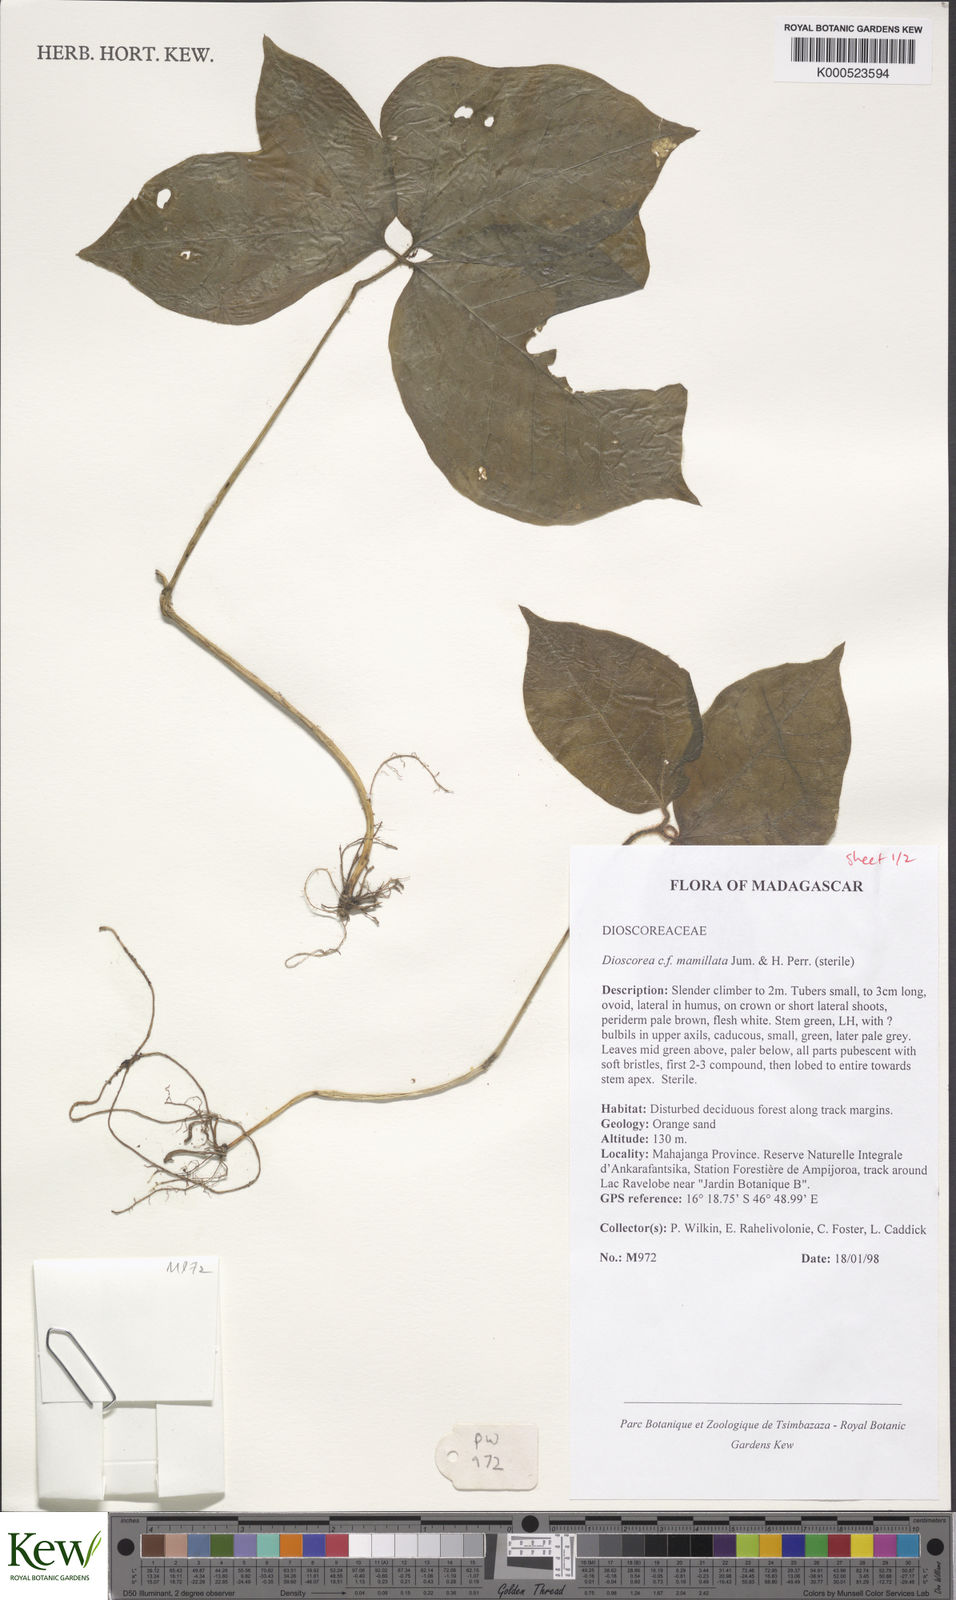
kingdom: Plantae
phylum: Tracheophyta
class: Liliopsida
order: Dioscoreales
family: Dioscoreaceae
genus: Dioscorea
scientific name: Dioscorea mamillata
